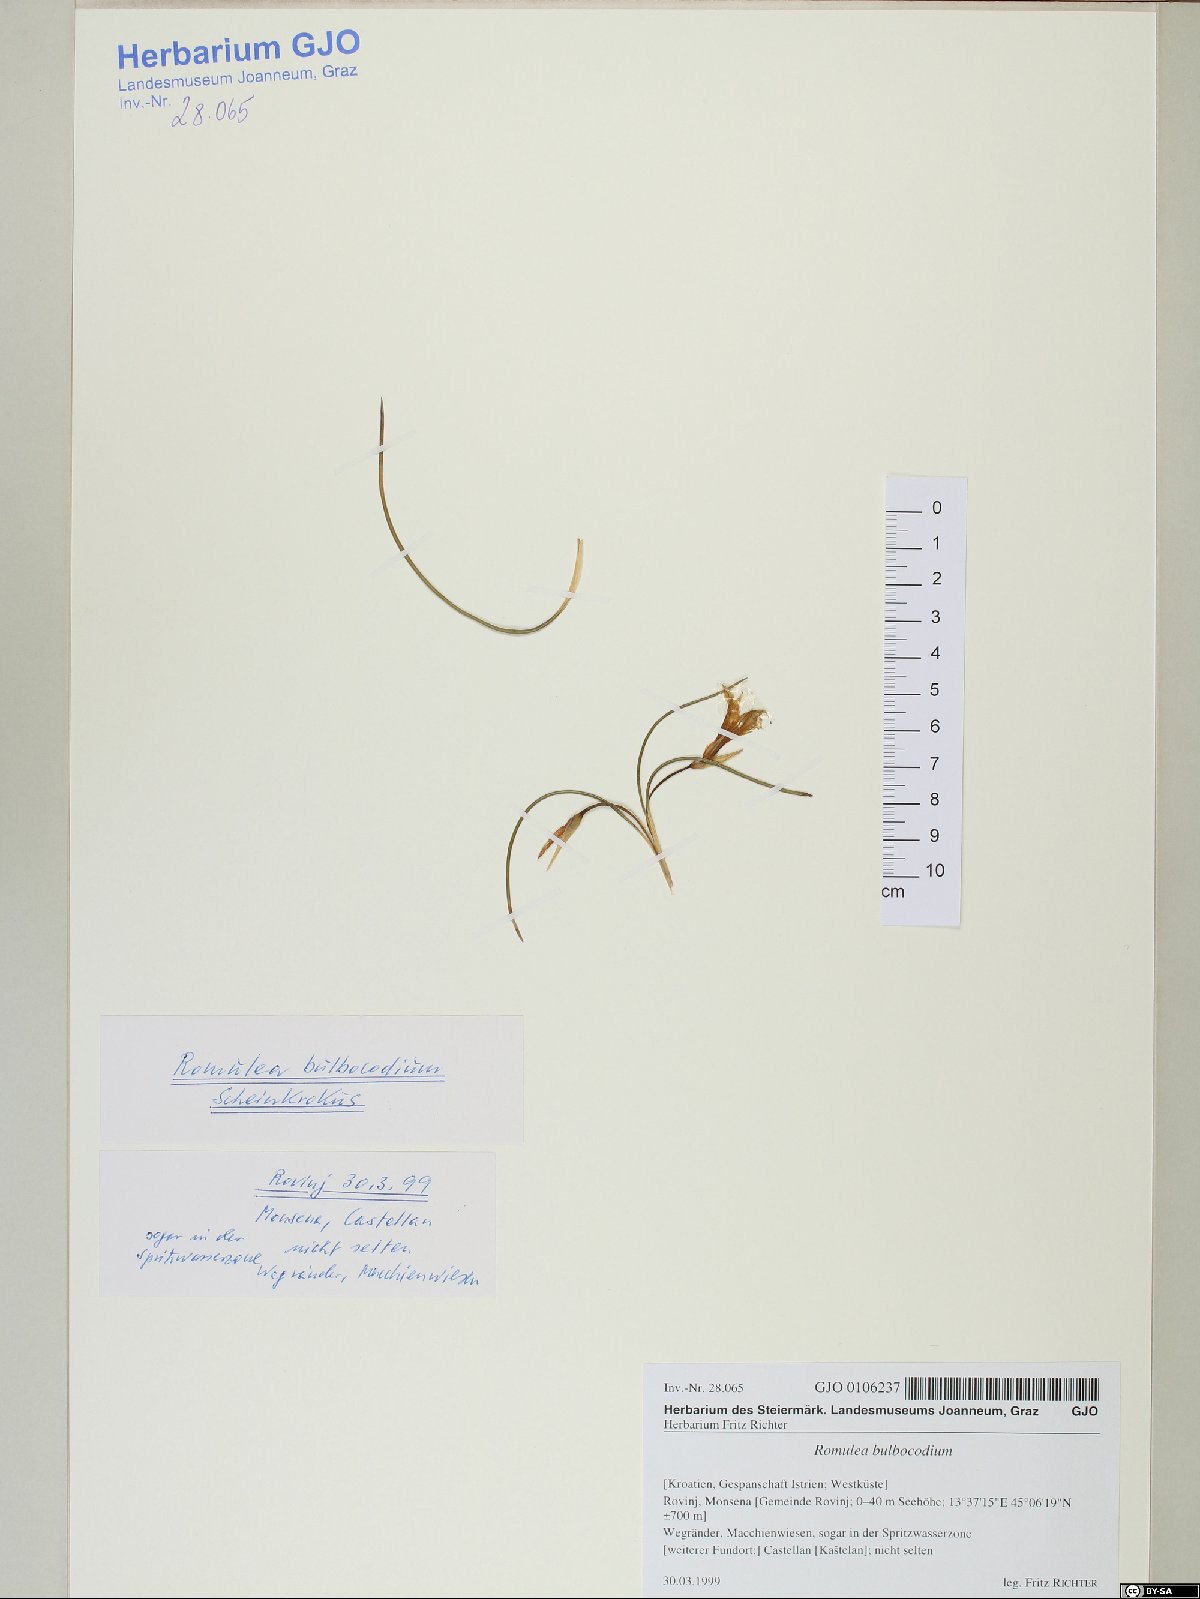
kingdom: Plantae
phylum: Tracheophyta
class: Liliopsida
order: Asparagales
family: Iridaceae
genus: Romulea
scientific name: Romulea bulbocodium
